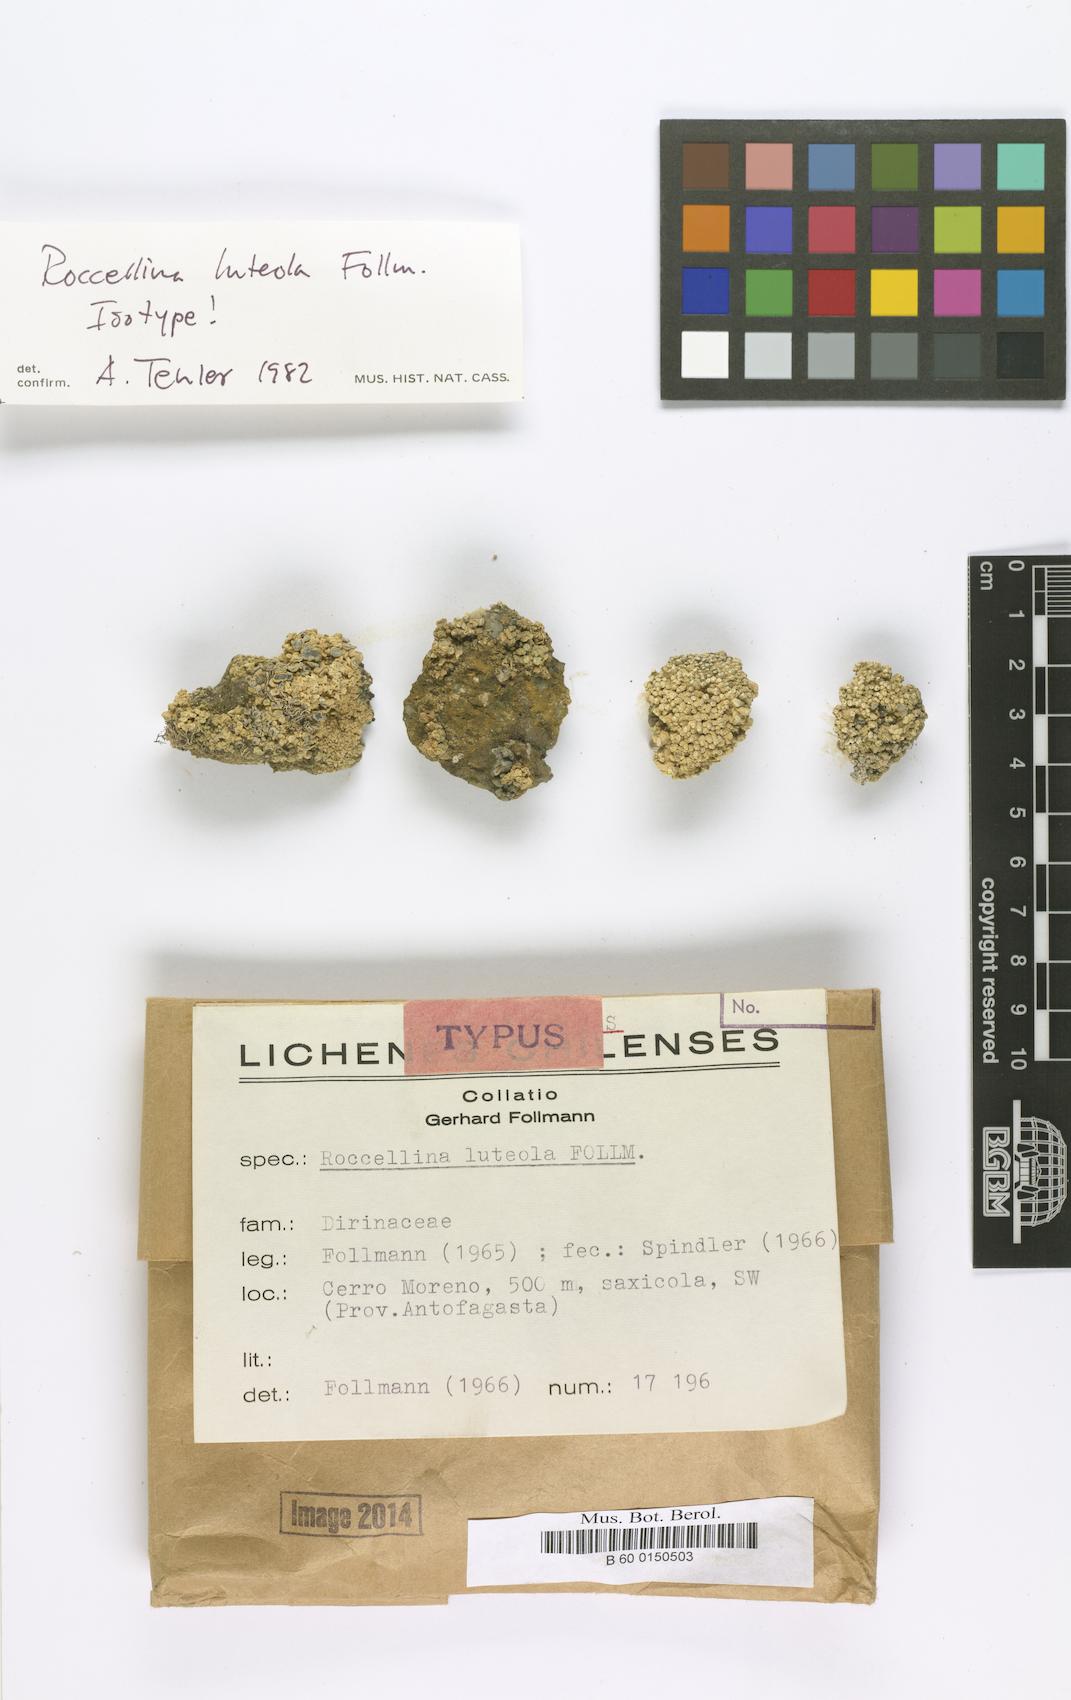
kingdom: Fungi
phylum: Ascomycota
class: Arthoniomycetes
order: Arthoniales
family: Roccellaceae
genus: Lecanactis
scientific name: Lecanactis luteola
